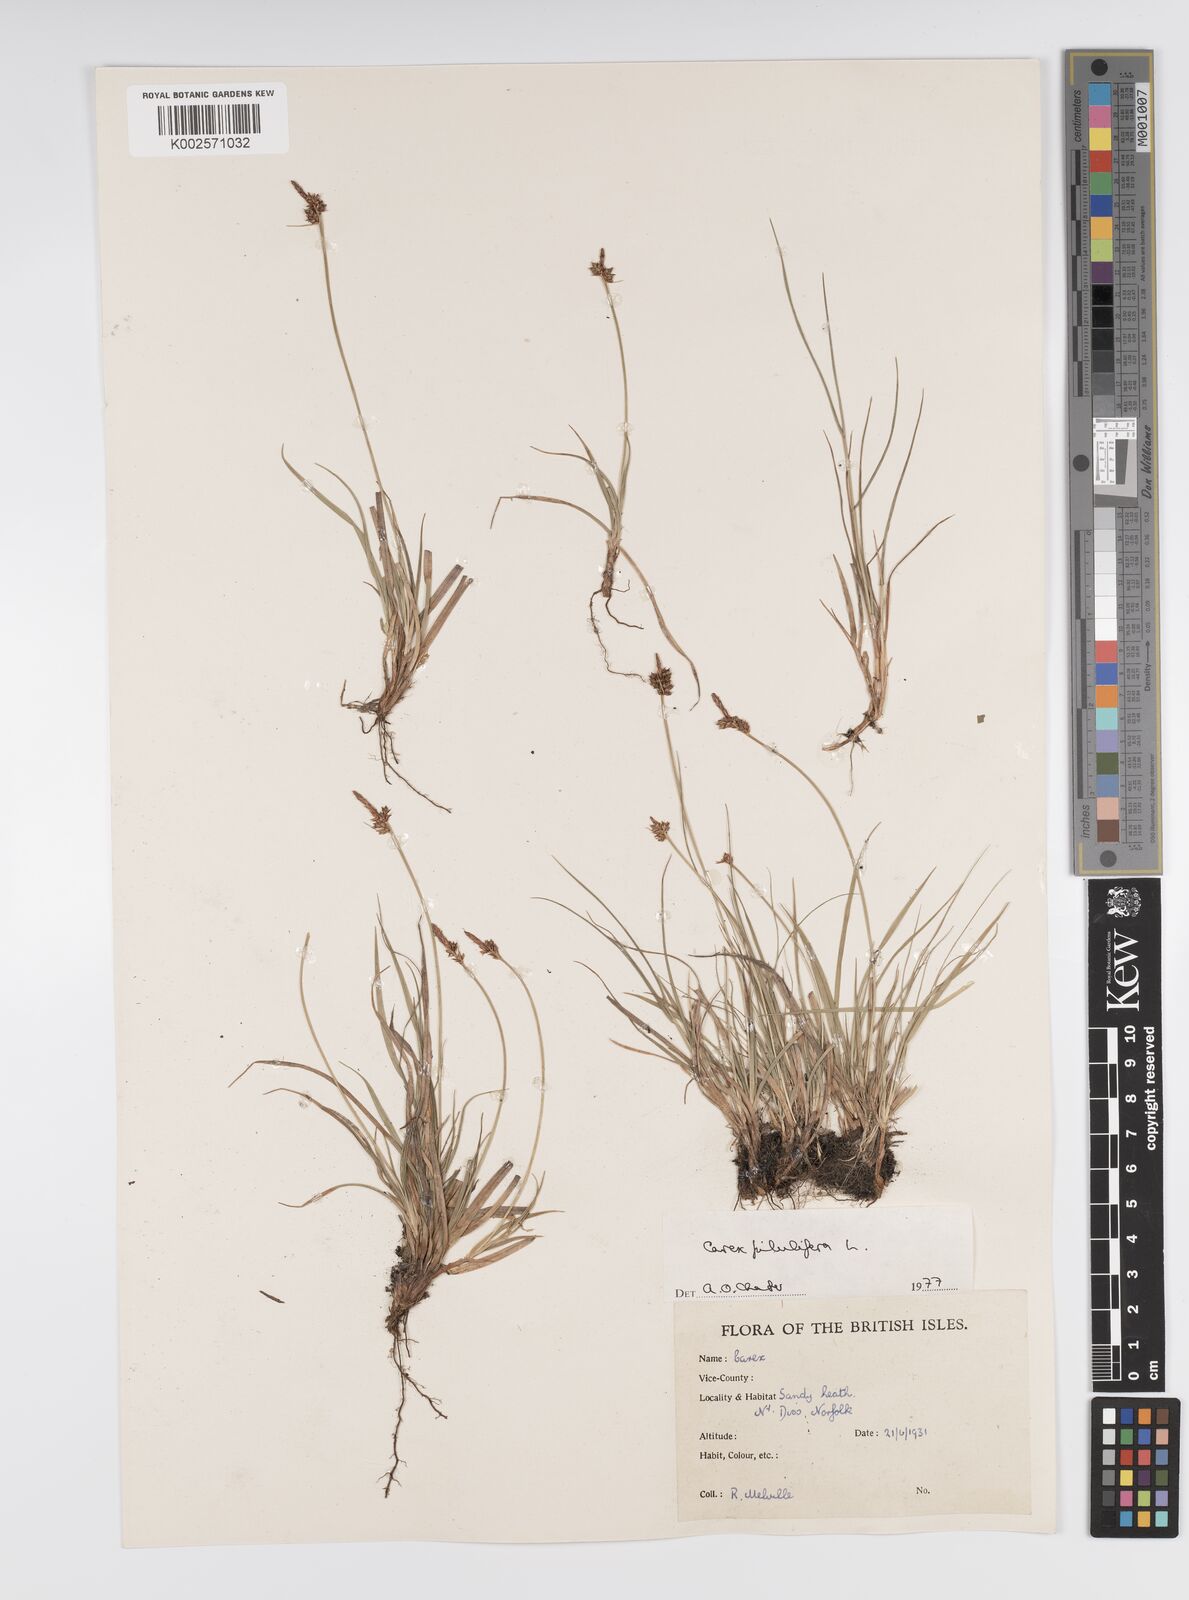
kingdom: Plantae
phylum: Tracheophyta
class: Liliopsida
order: Poales
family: Cyperaceae
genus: Carex
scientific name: Carex pilulifera
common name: Pill sedge
